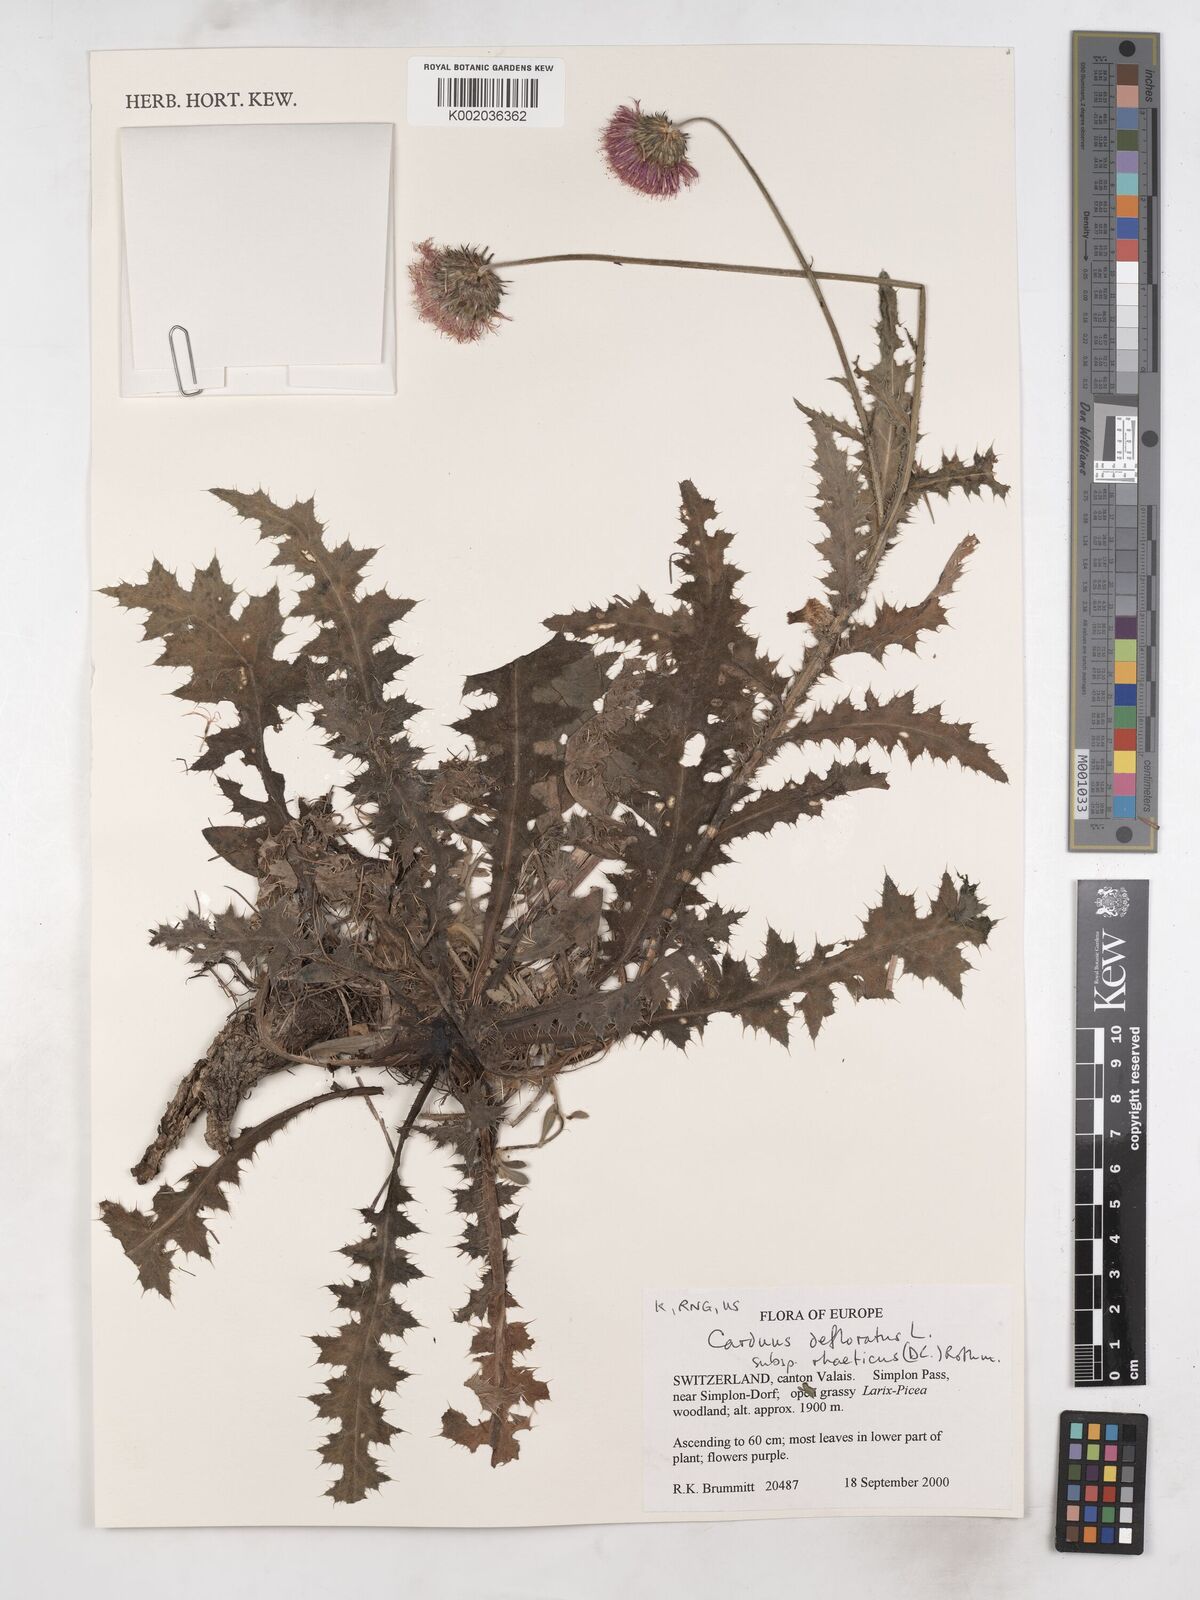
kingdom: Plantae
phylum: Tracheophyta
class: Magnoliopsida
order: Asterales
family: Asteraceae
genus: Carduus
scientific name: Carduus defloratus
